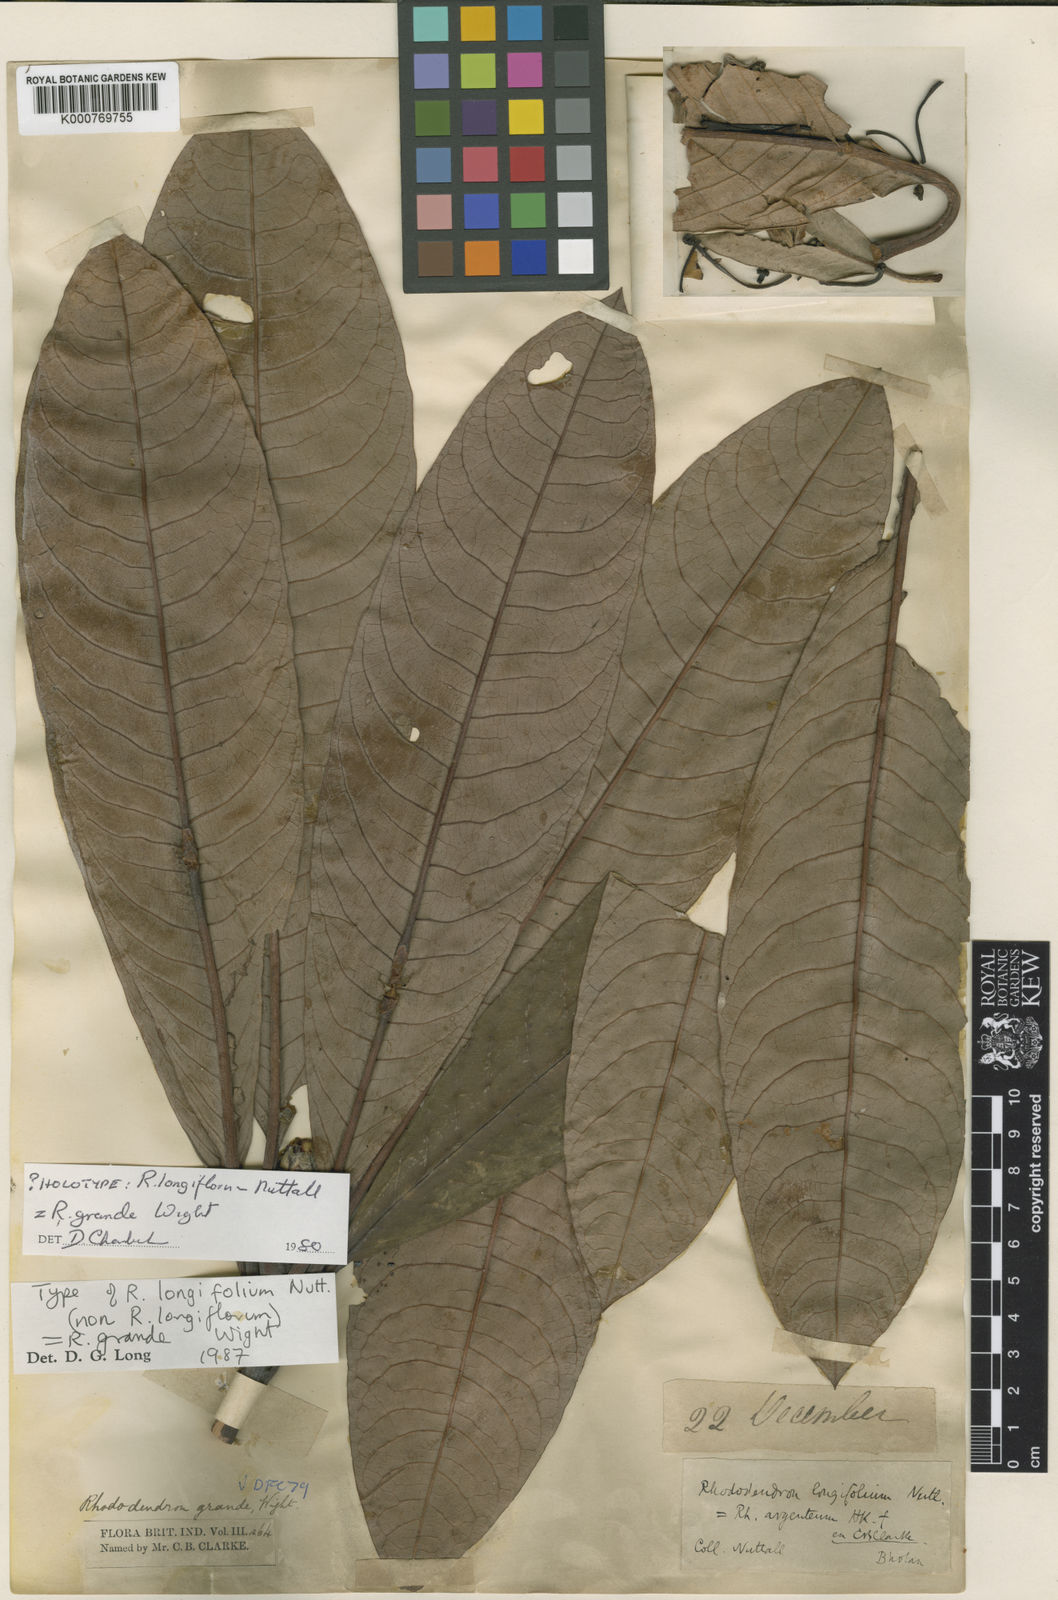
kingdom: Plantae
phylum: Tracheophyta
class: Magnoliopsida
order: Ericales
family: Ericaceae
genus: Rhododendron
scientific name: Rhododendron grande
